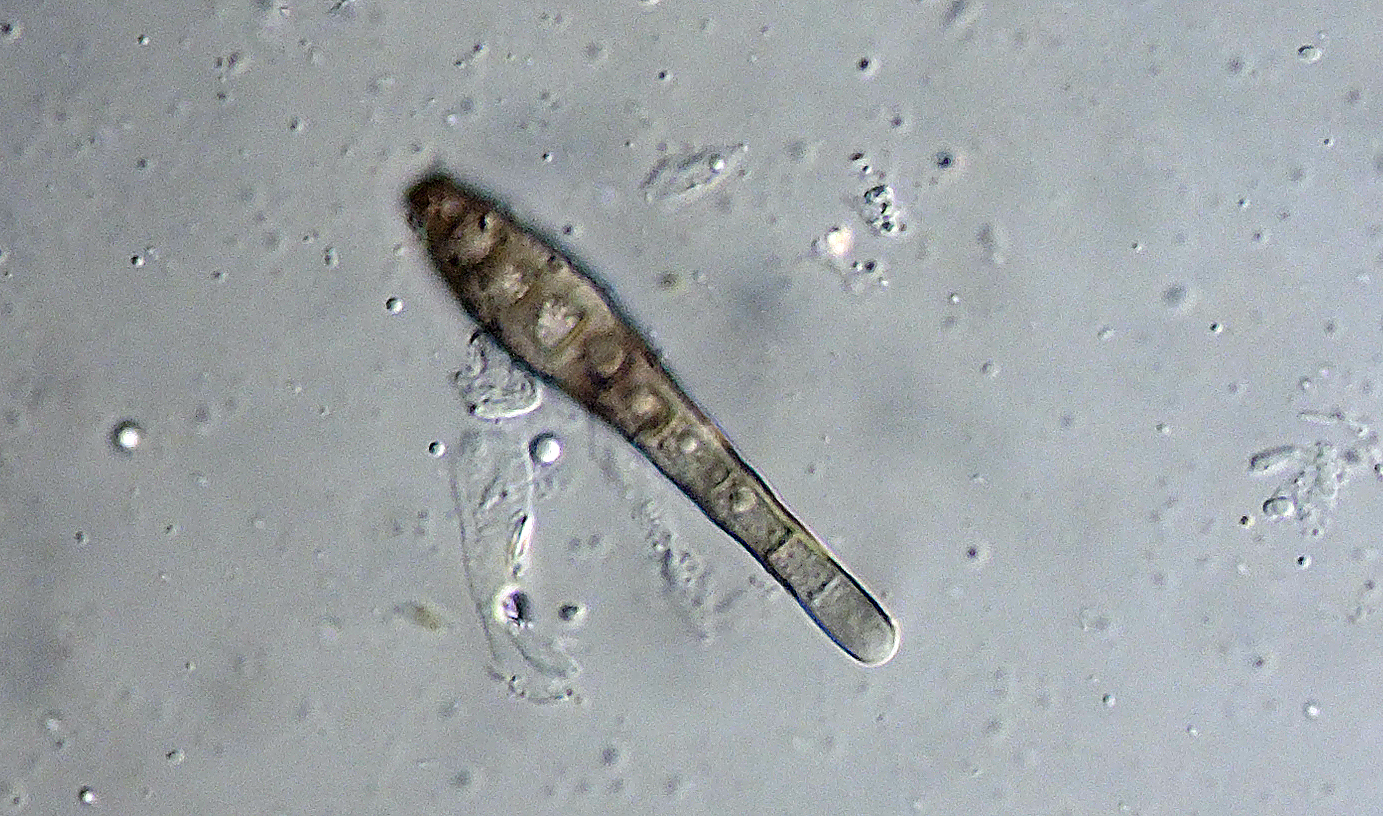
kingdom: Fungi
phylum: Ascomycota
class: Sordariomycetes
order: Chaetosphaeriales
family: Chaetosphaeriaceae
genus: Ellisembia
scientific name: Ellisembia leptospora
